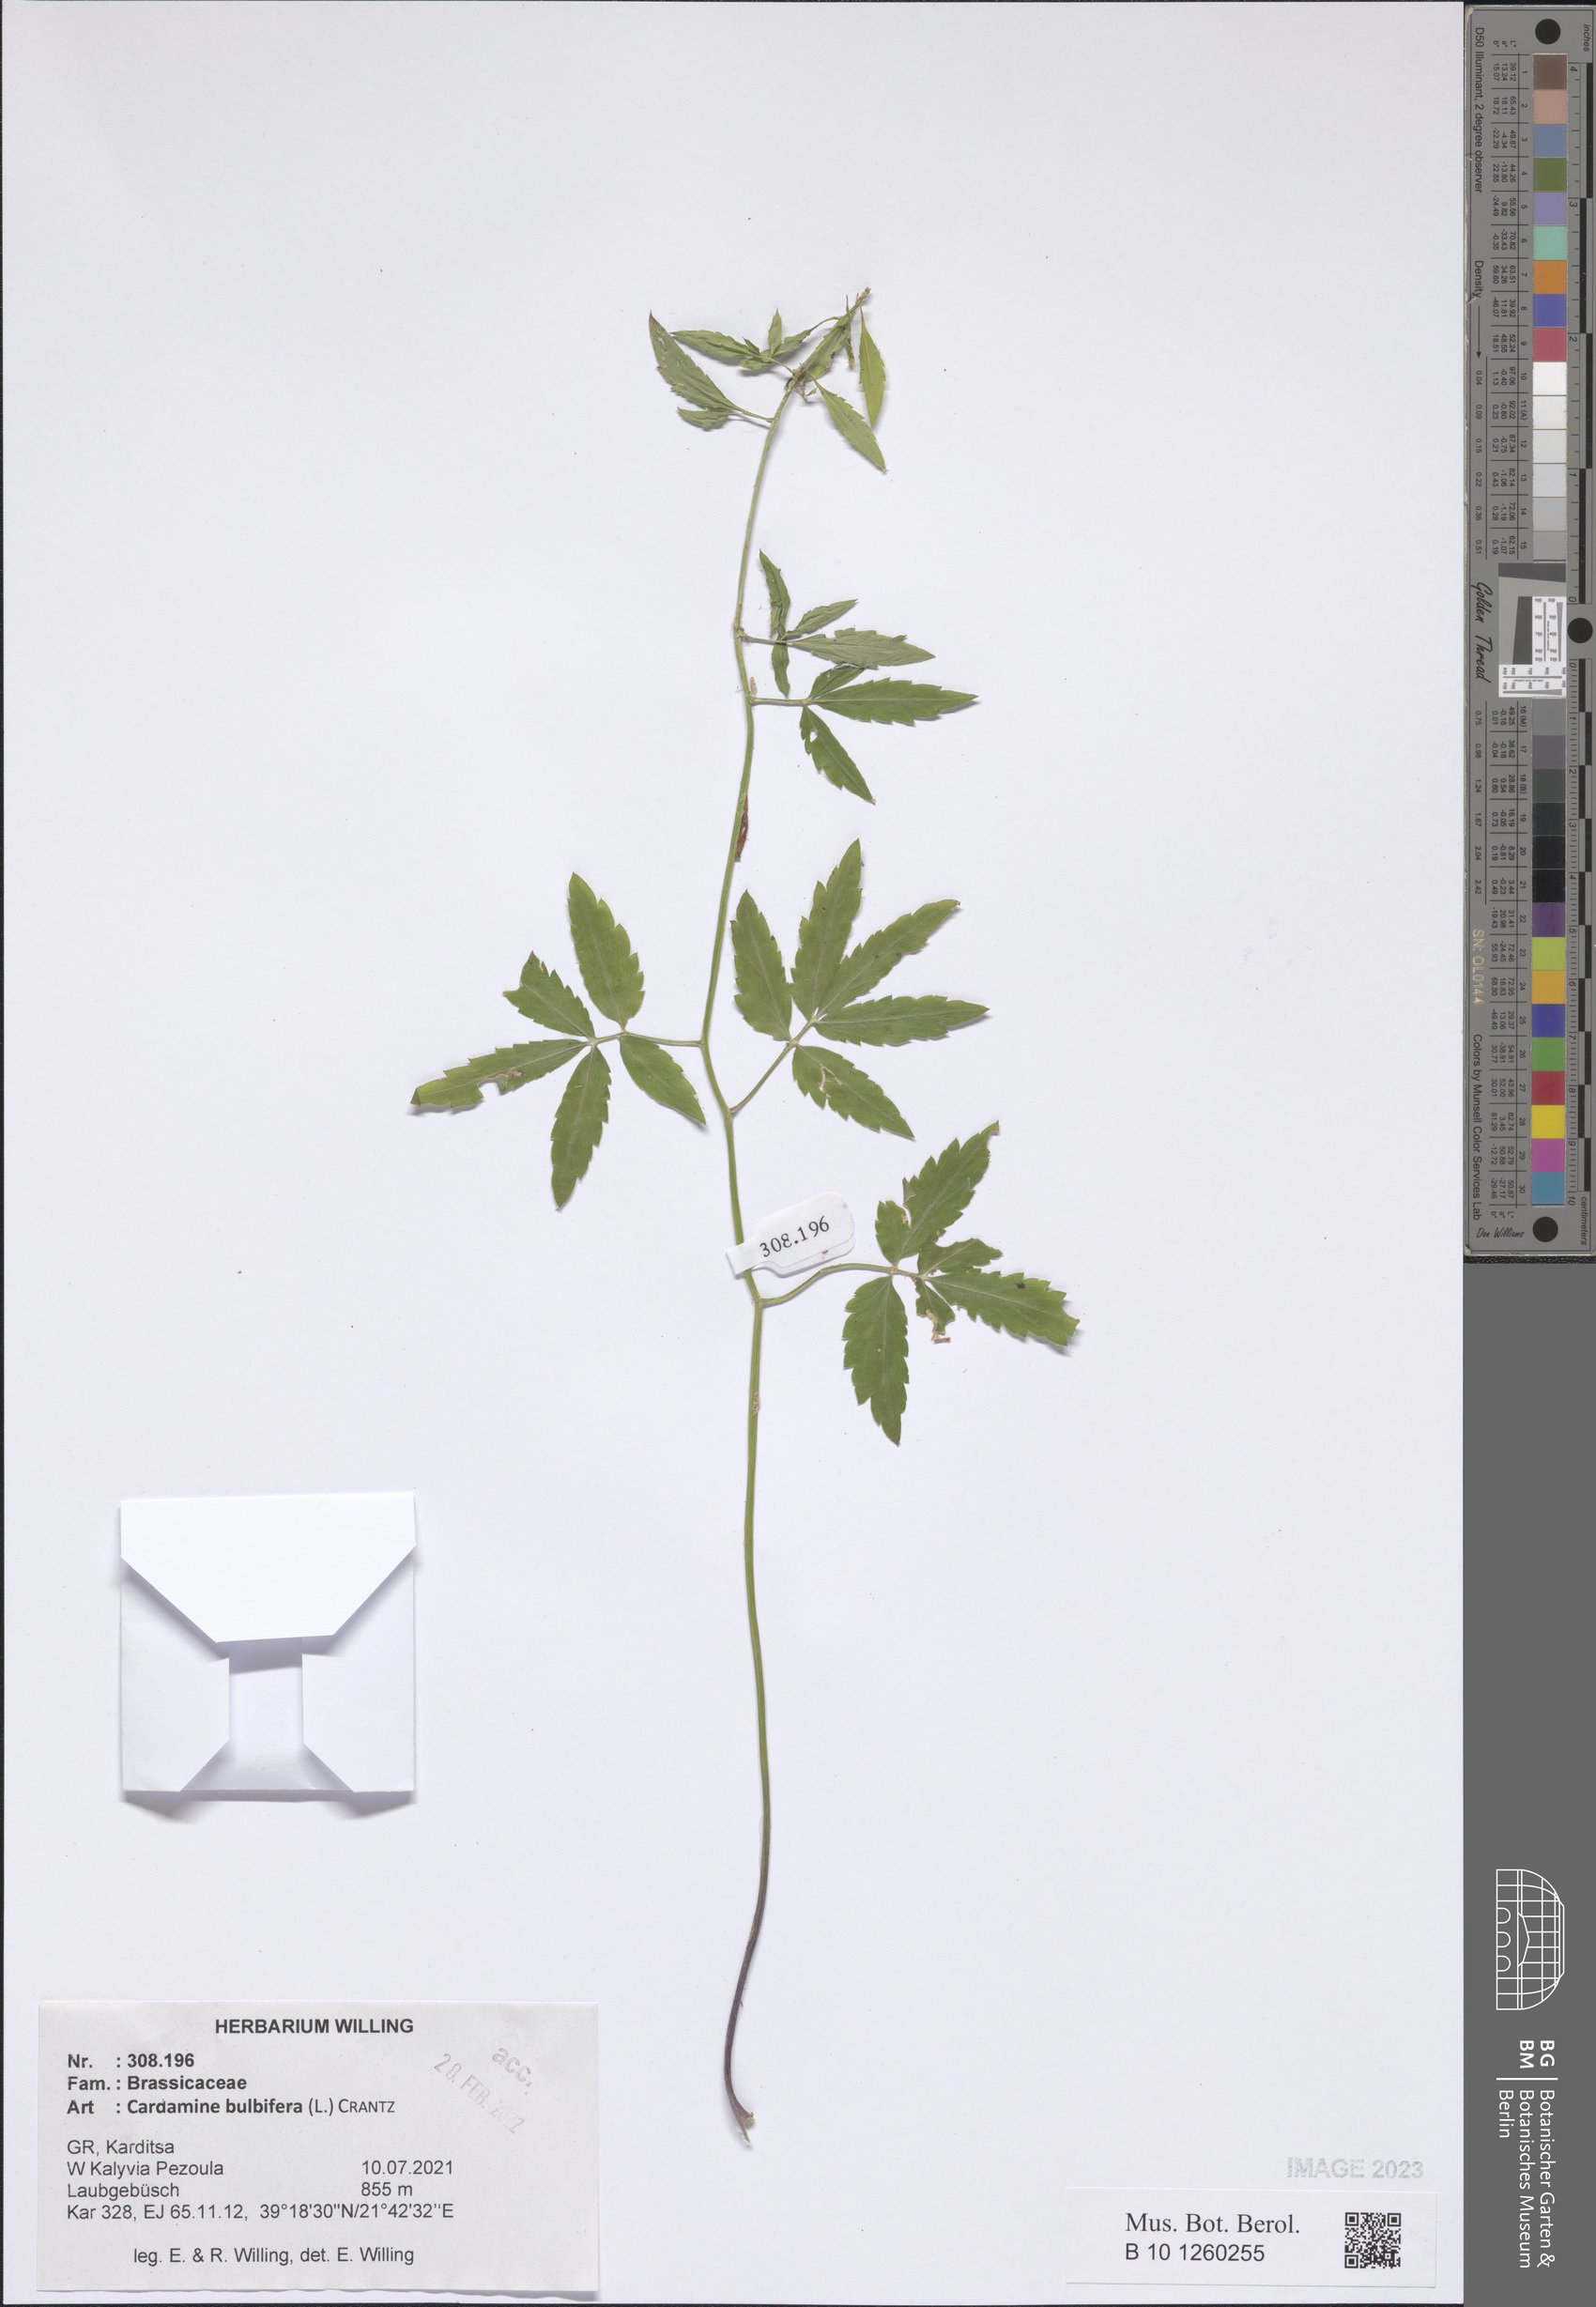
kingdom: Plantae
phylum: Tracheophyta
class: Magnoliopsida
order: Brassicales
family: Brassicaceae
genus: Cardamine
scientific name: Cardamine bulbifera
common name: Coralroot bittercress
